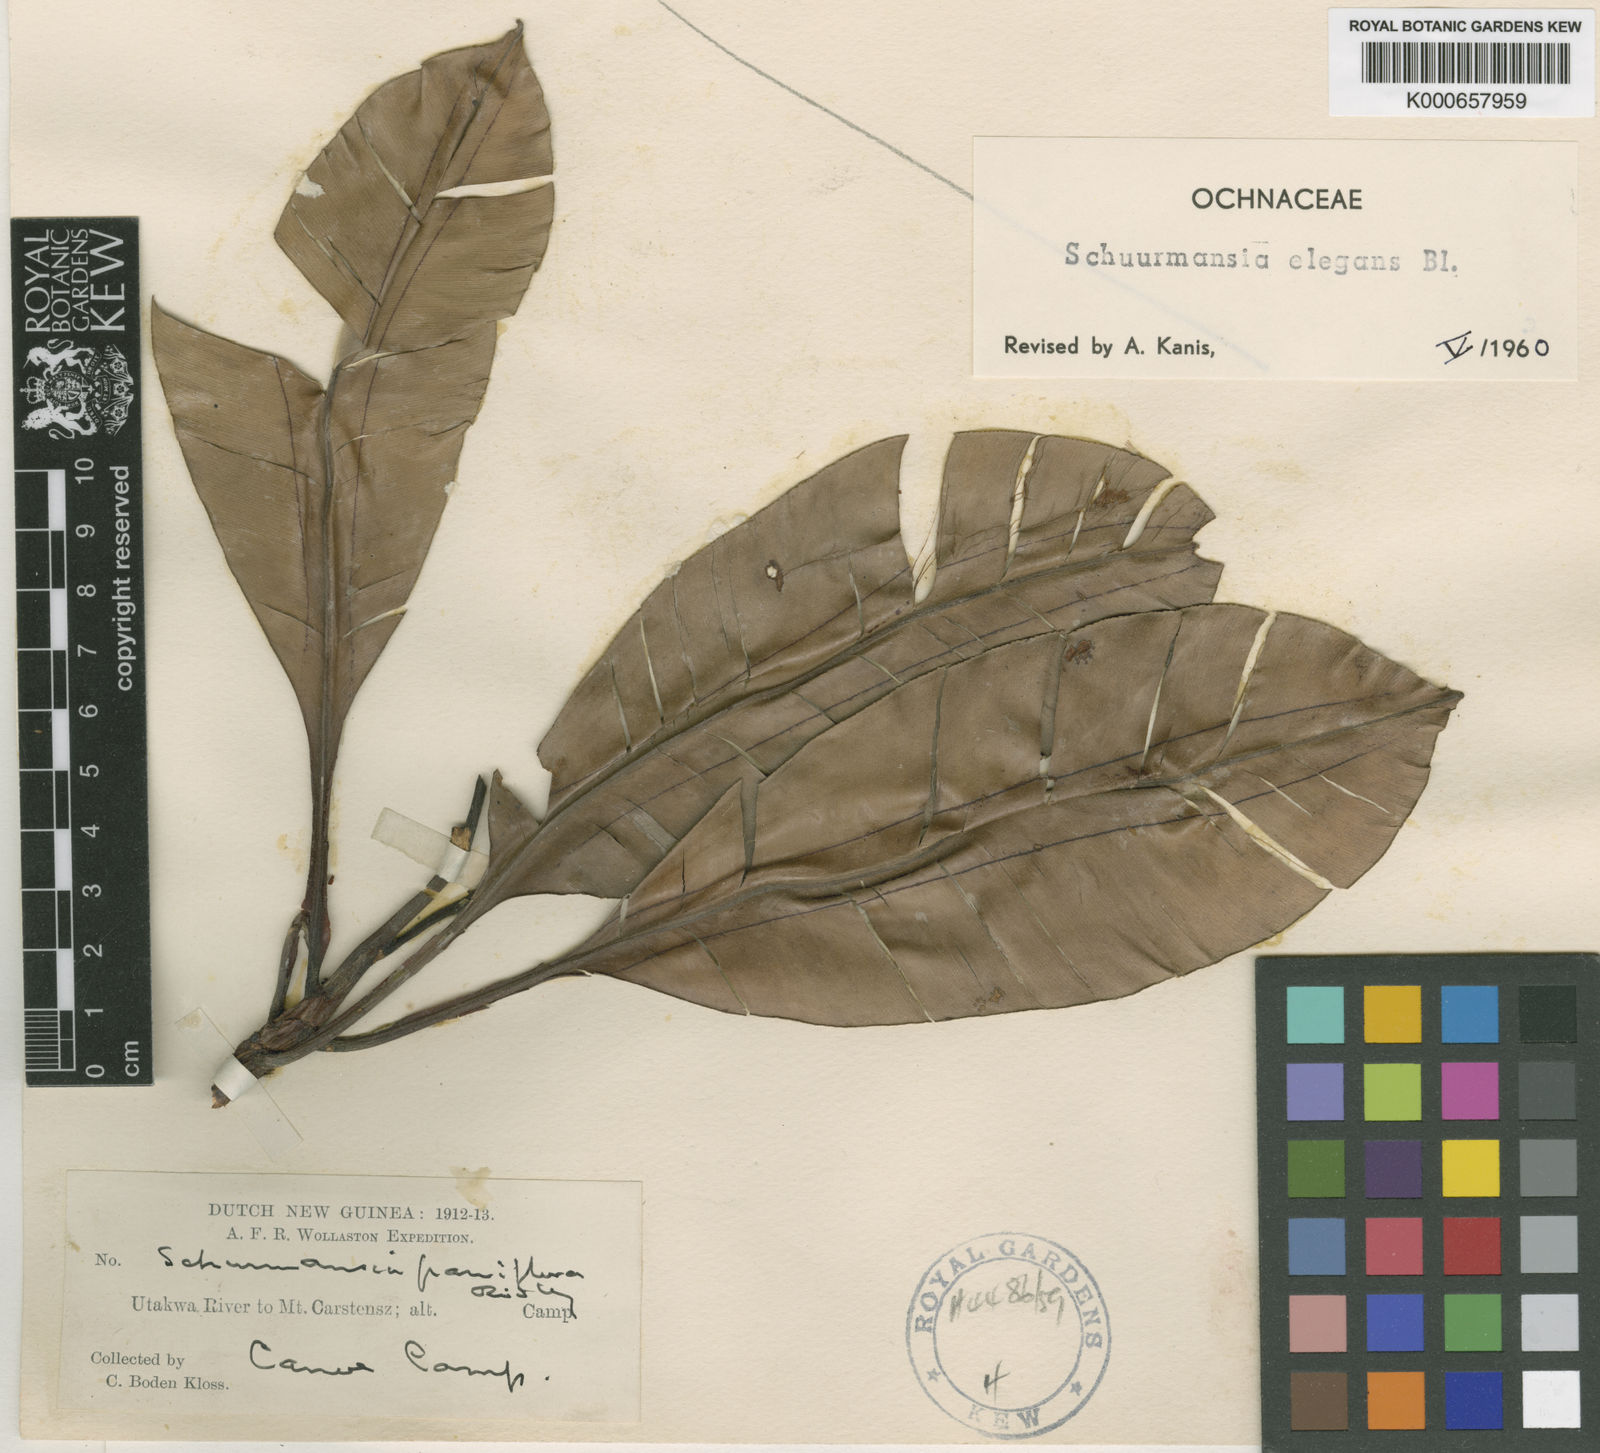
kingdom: Plantae
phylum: Tracheophyta
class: Magnoliopsida
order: Malpighiales
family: Ochnaceae
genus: Schuurmansia
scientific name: Schuurmansia elegans
